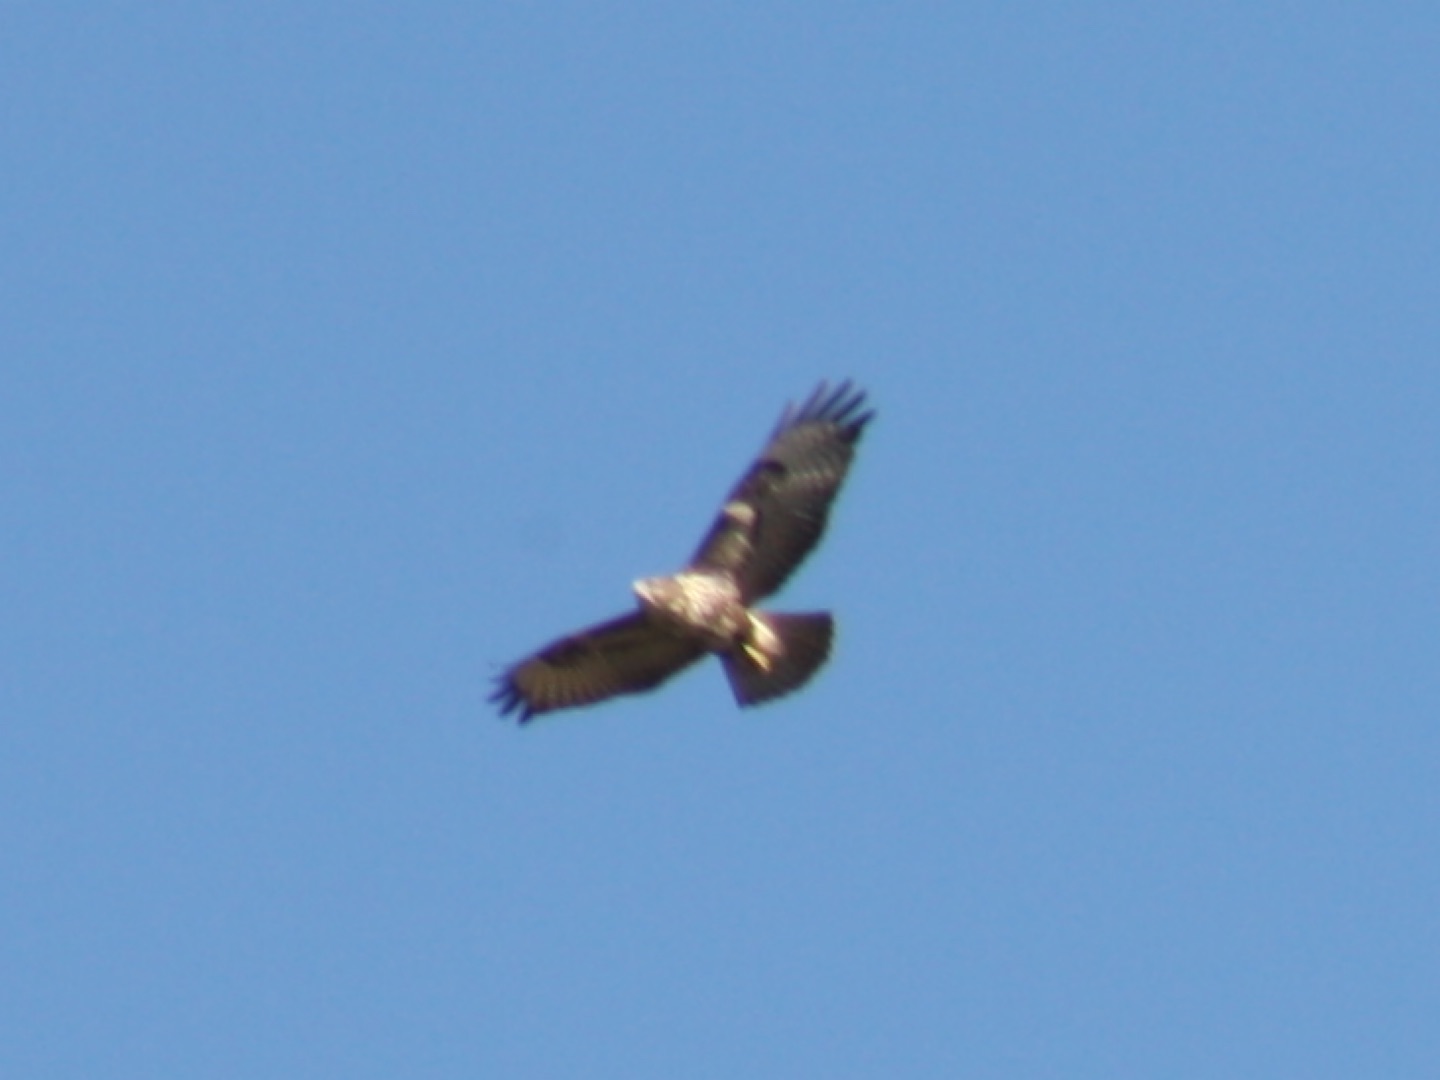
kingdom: Animalia
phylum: Chordata
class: Aves
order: Accipitriformes
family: Accipitridae
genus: Buteo
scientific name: Buteo buteo
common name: Musvåge
